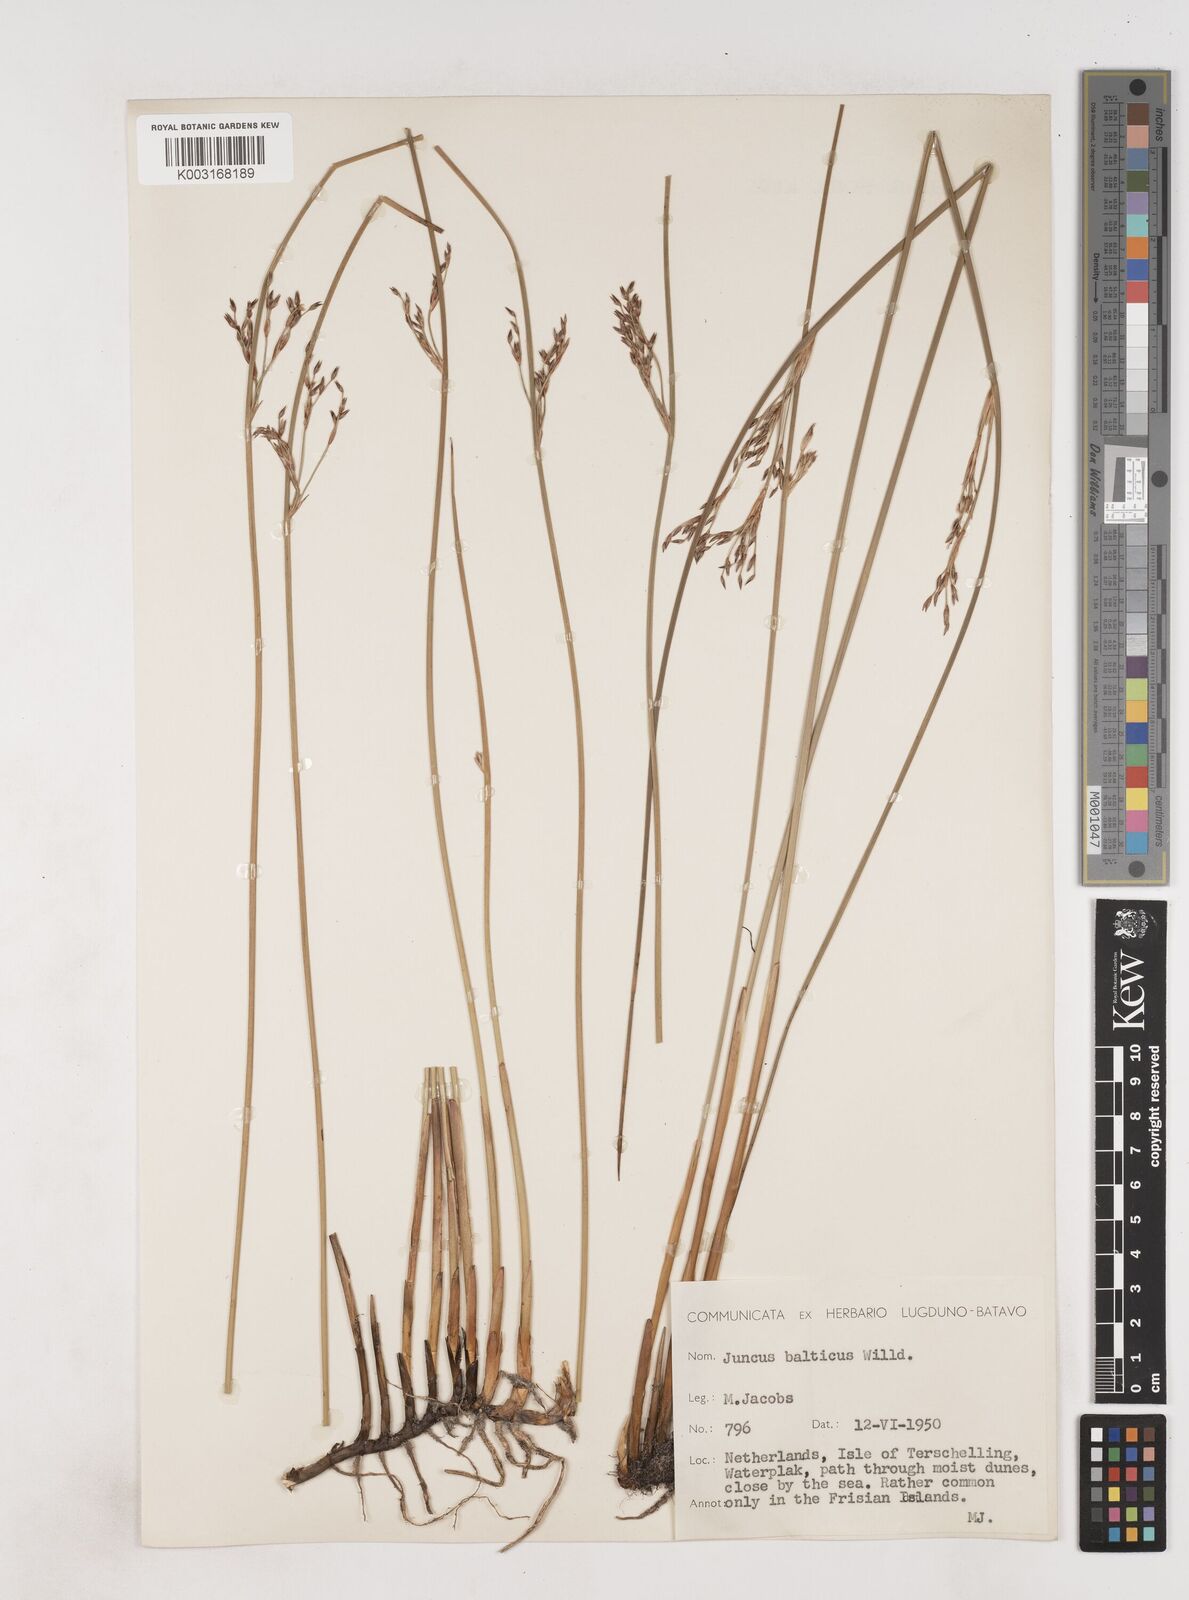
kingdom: Plantae
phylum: Tracheophyta
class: Liliopsida
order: Poales
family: Juncaceae
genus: Juncus
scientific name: Juncus balticus
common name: Baltic rush
